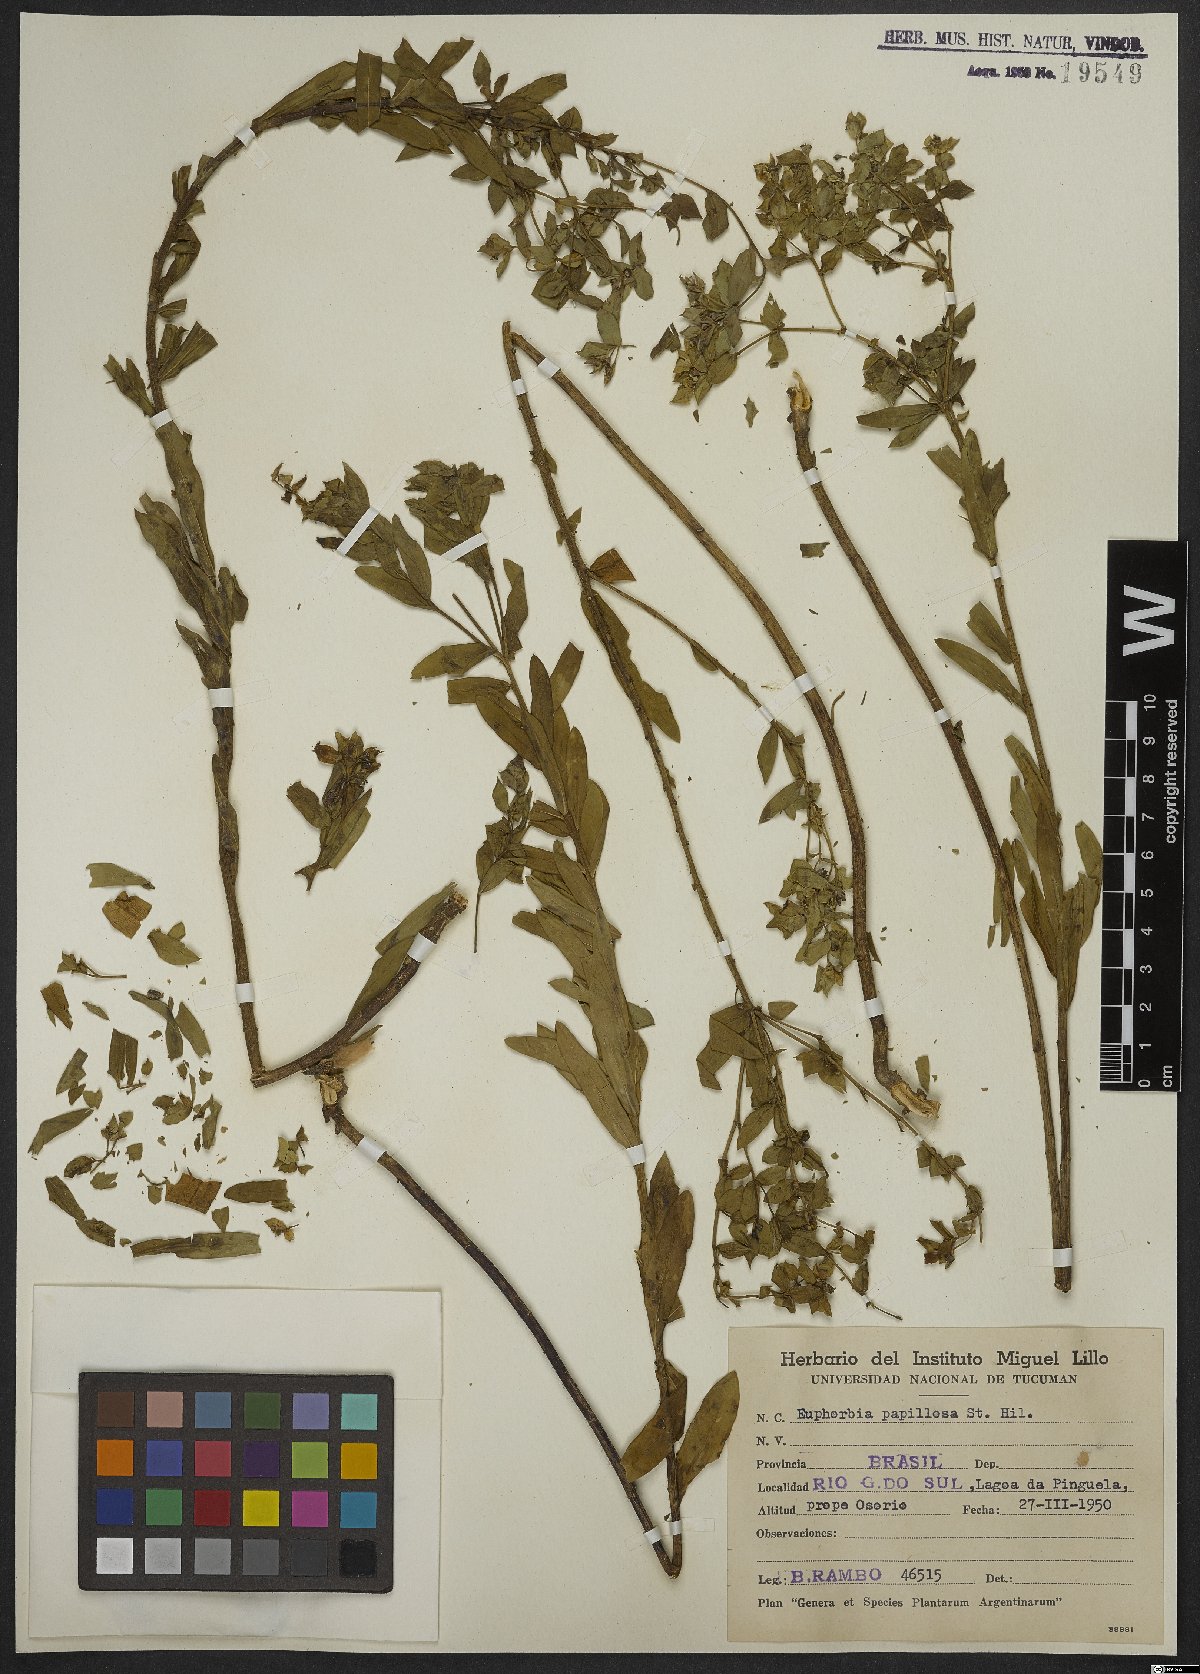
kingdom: Plantae
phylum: Tracheophyta
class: Magnoliopsida
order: Malpighiales
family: Euphorbiaceae
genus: Euphorbia
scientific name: Euphorbia papillosa
